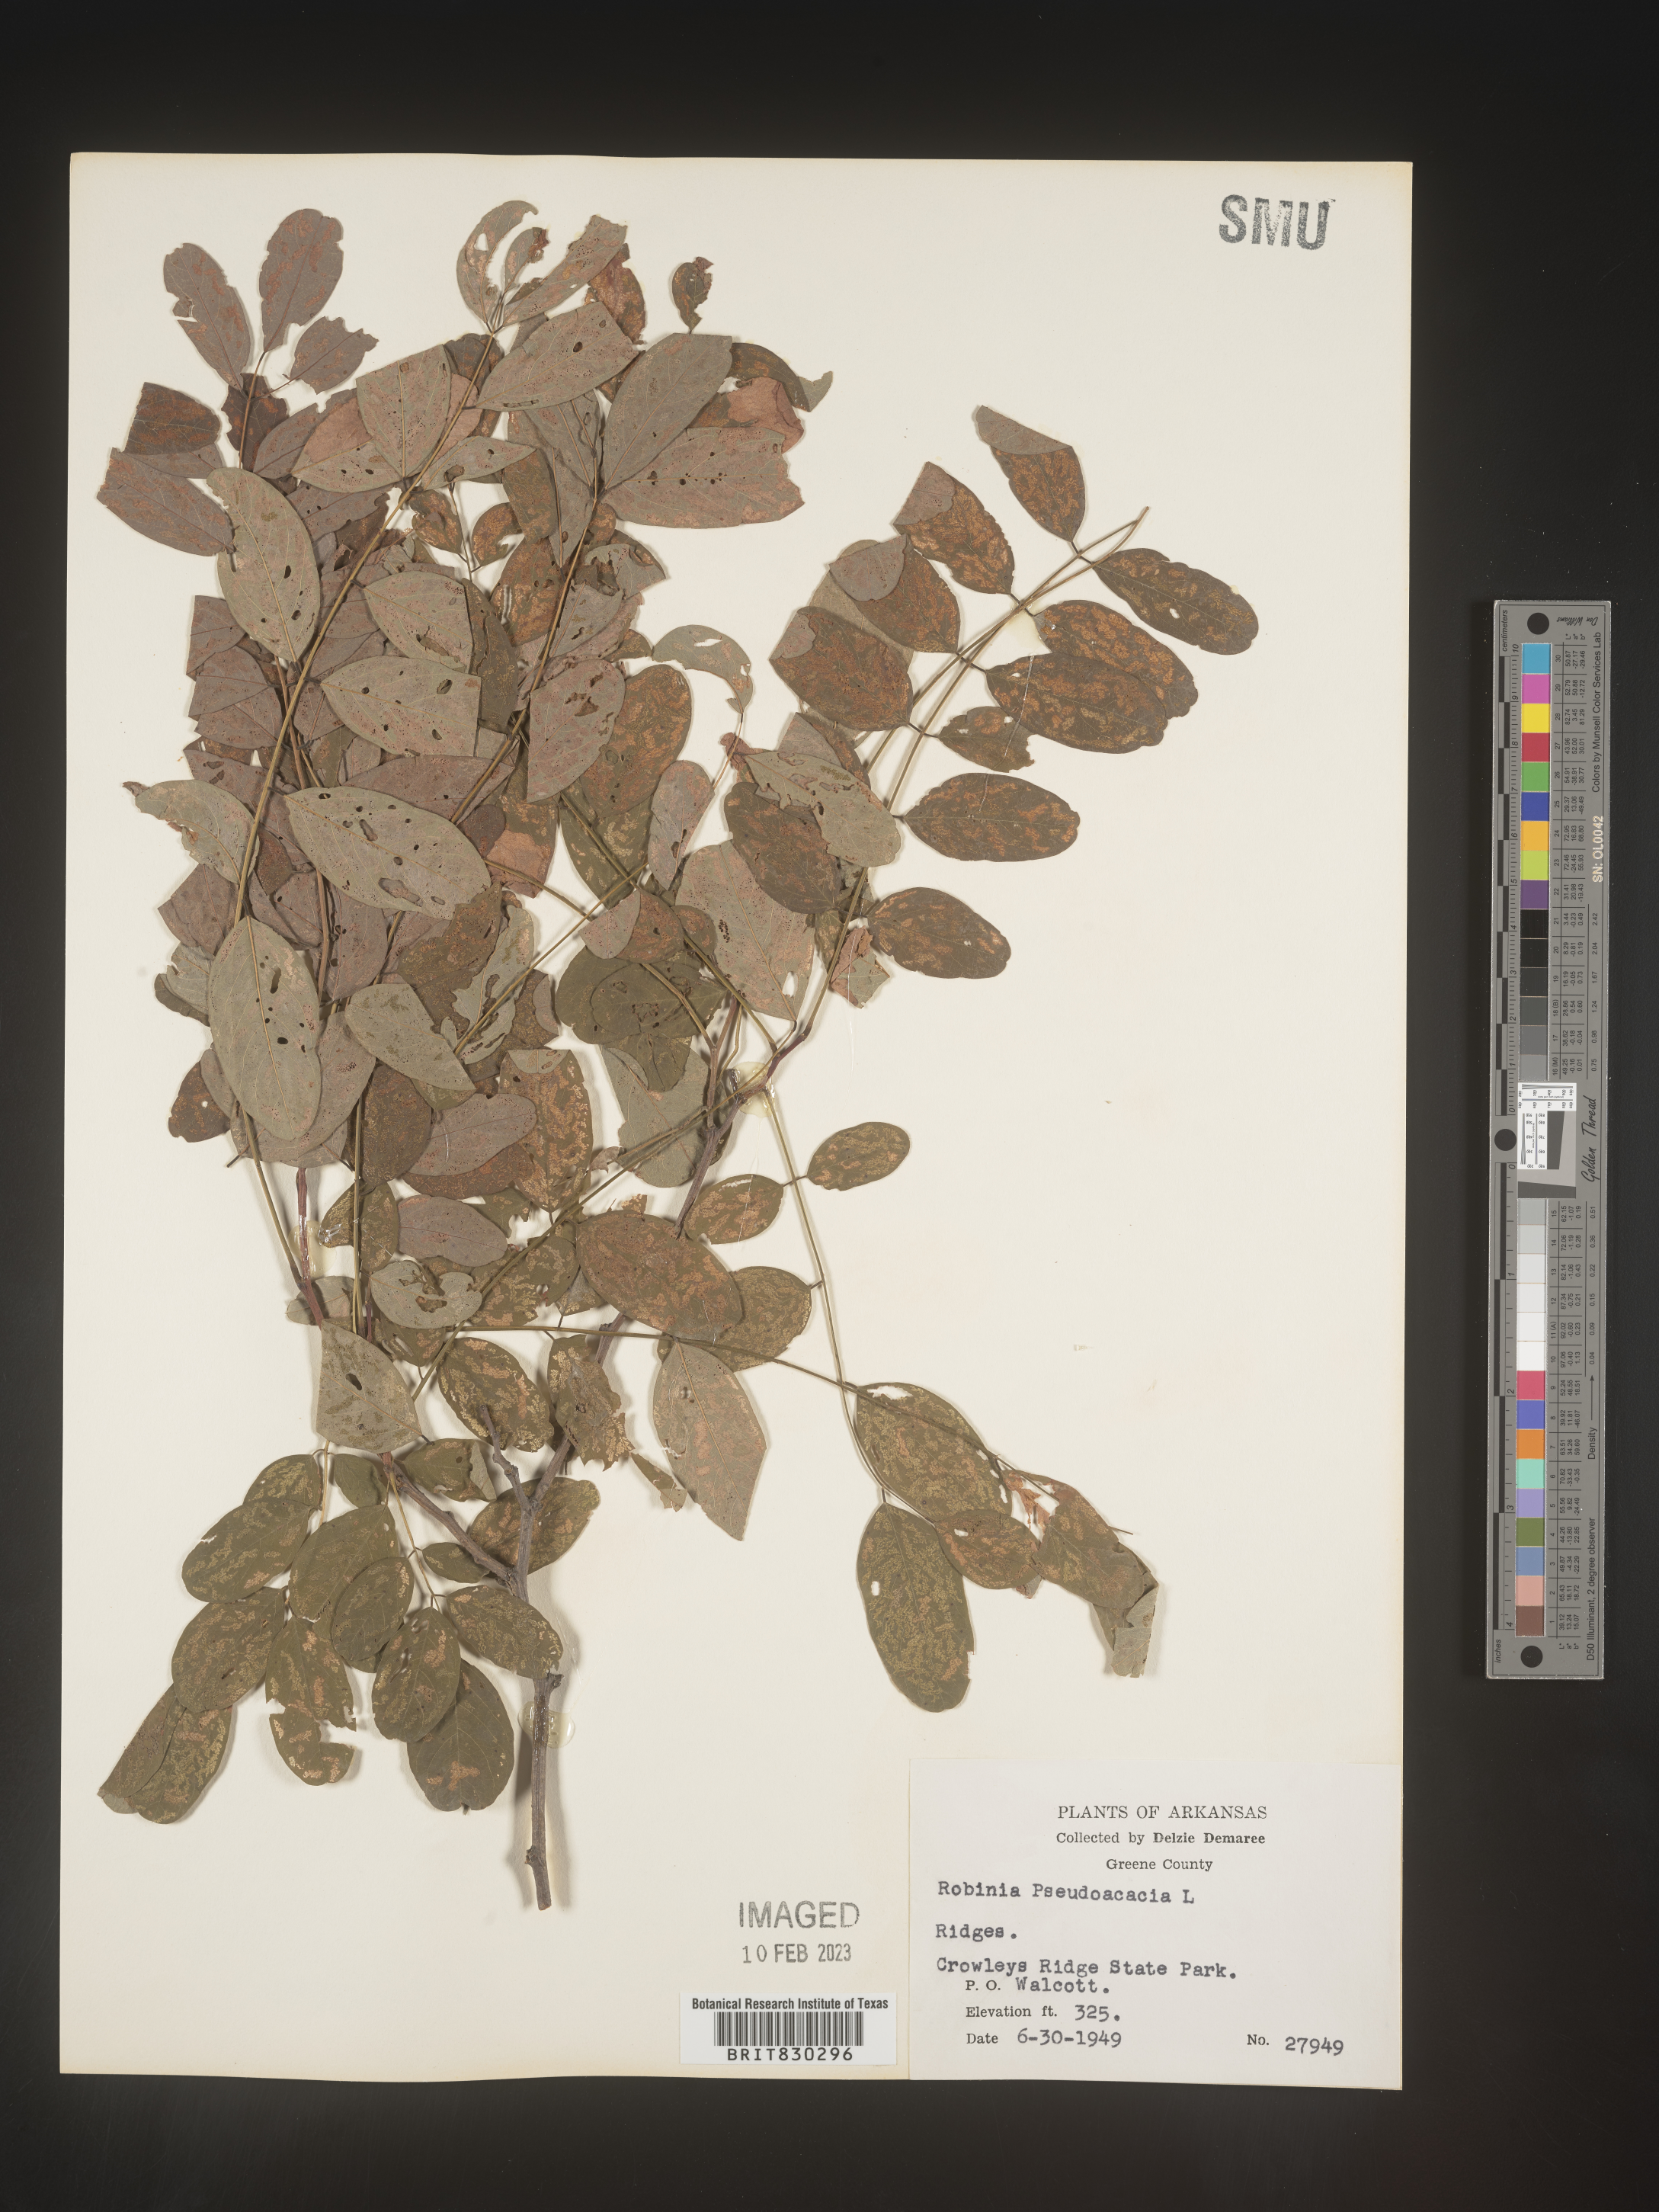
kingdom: Plantae
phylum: Tracheophyta
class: Magnoliopsida
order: Fabales
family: Fabaceae
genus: Robinia
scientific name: Robinia pseudoacacia
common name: Black locust
